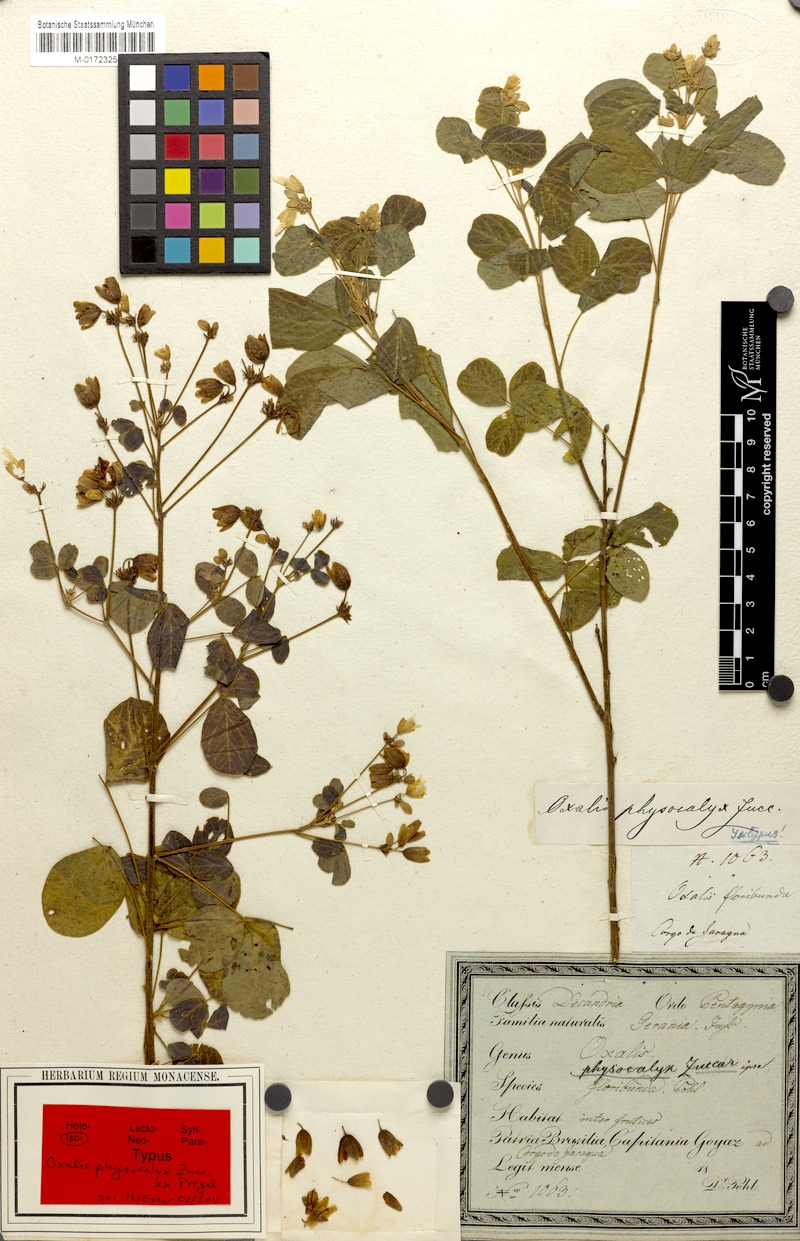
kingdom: Plantae
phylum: Tracheophyta
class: Magnoliopsida
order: Oxalidales
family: Oxalidaceae
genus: Oxalis
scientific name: Oxalis physocalyx
